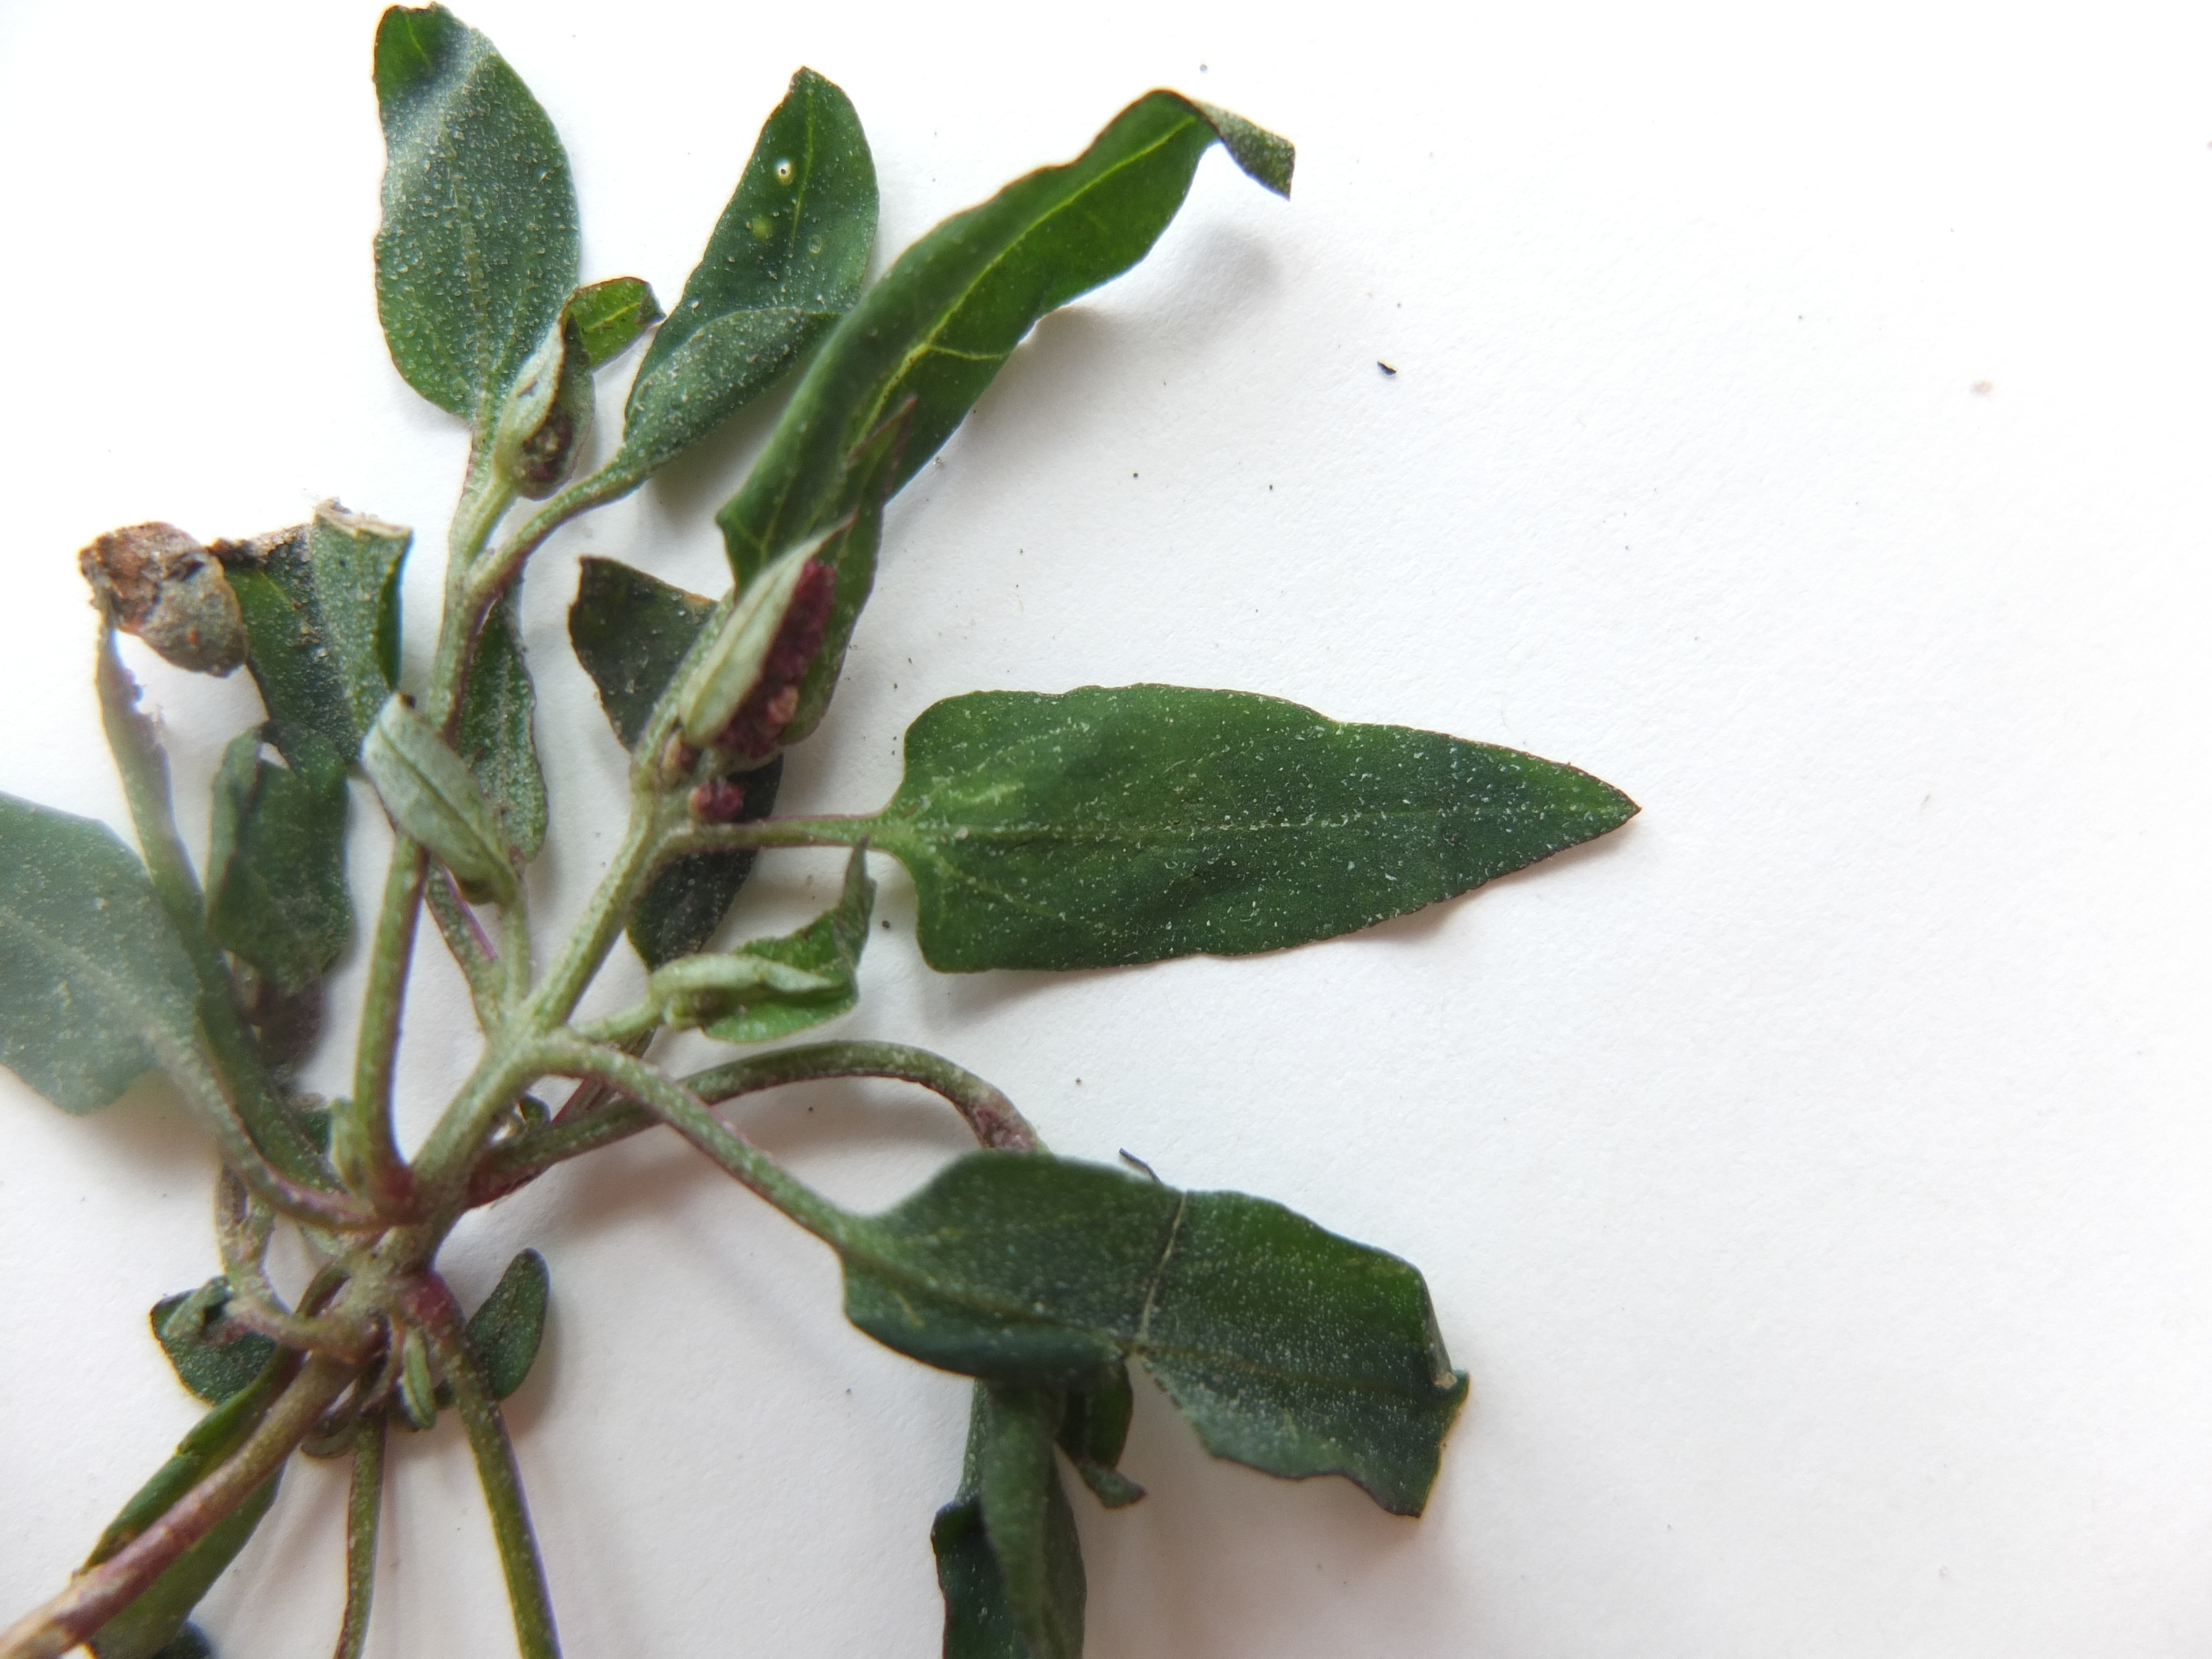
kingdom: Plantae
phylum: Tracheophyta
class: Magnoliopsida
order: Caryophyllales
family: Amaranthaceae
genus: Atriplex
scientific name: Atriplex prostrata
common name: Spyd-mælde
